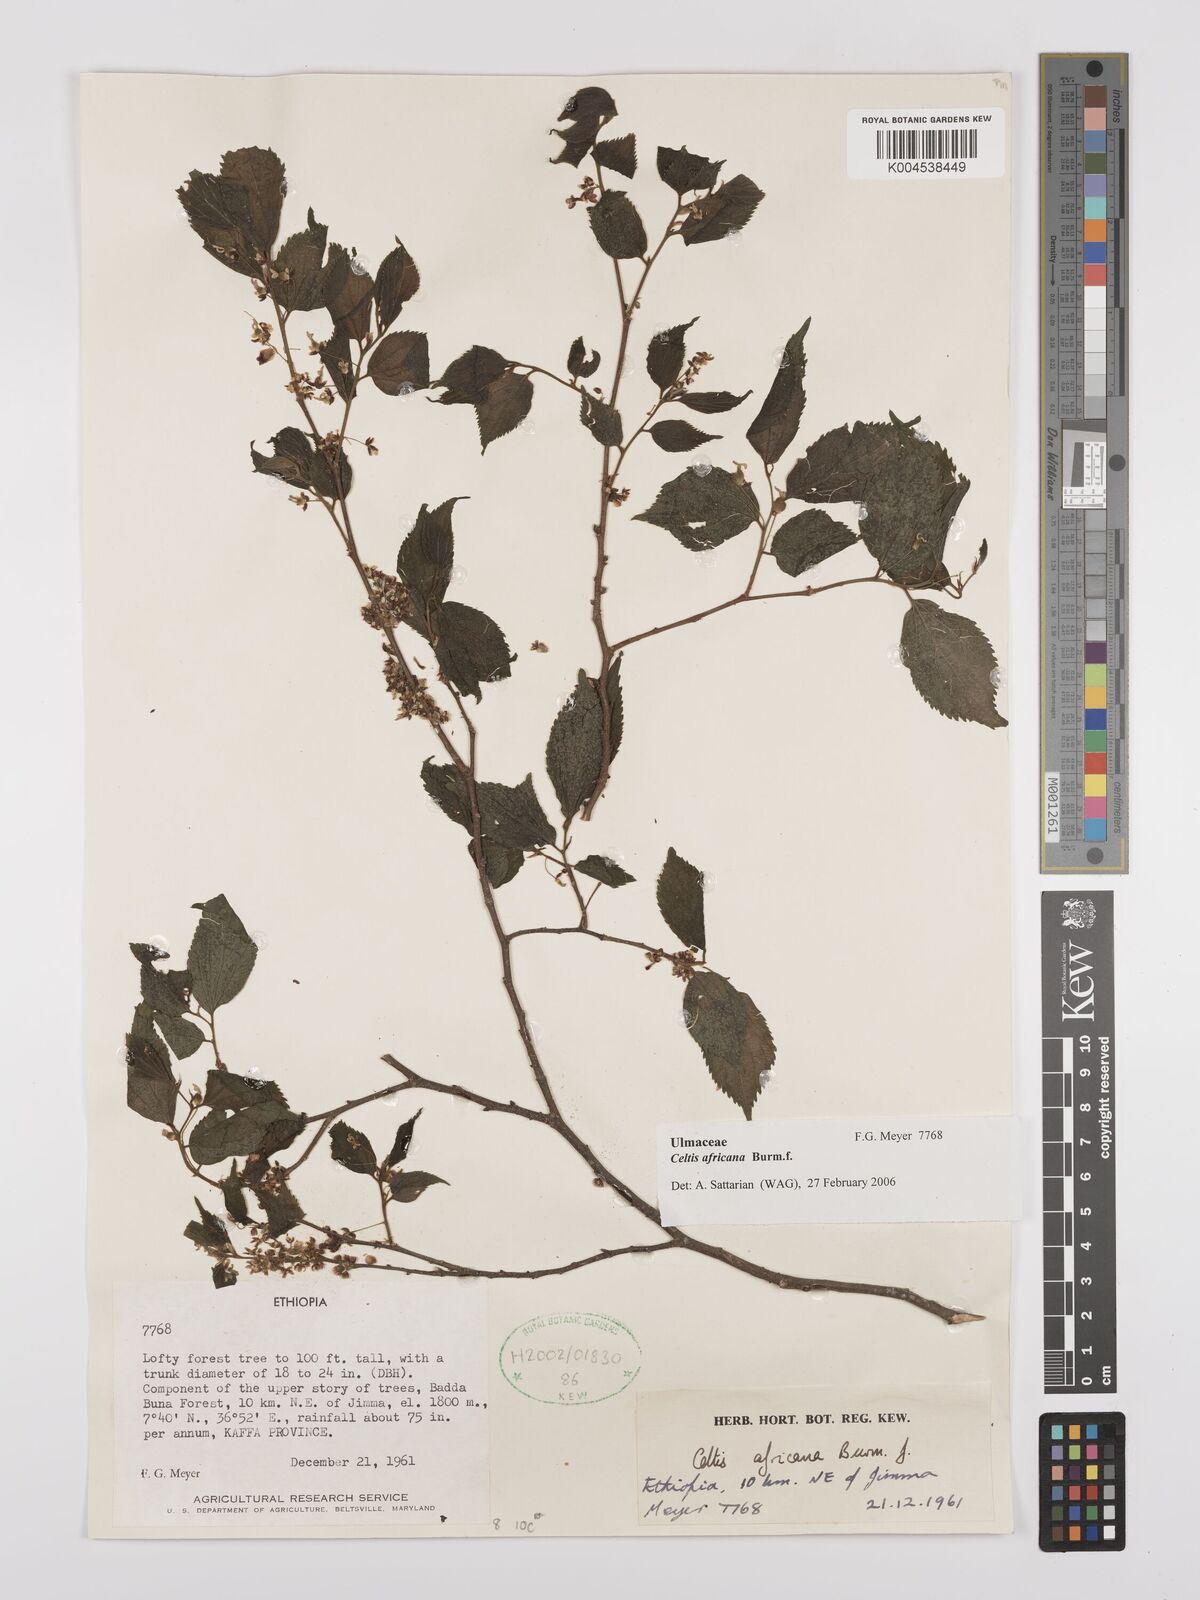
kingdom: Plantae
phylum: Tracheophyta
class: Magnoliopsida
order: Rosales
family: Cannabaceae
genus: Celtis
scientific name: Celtis africana
